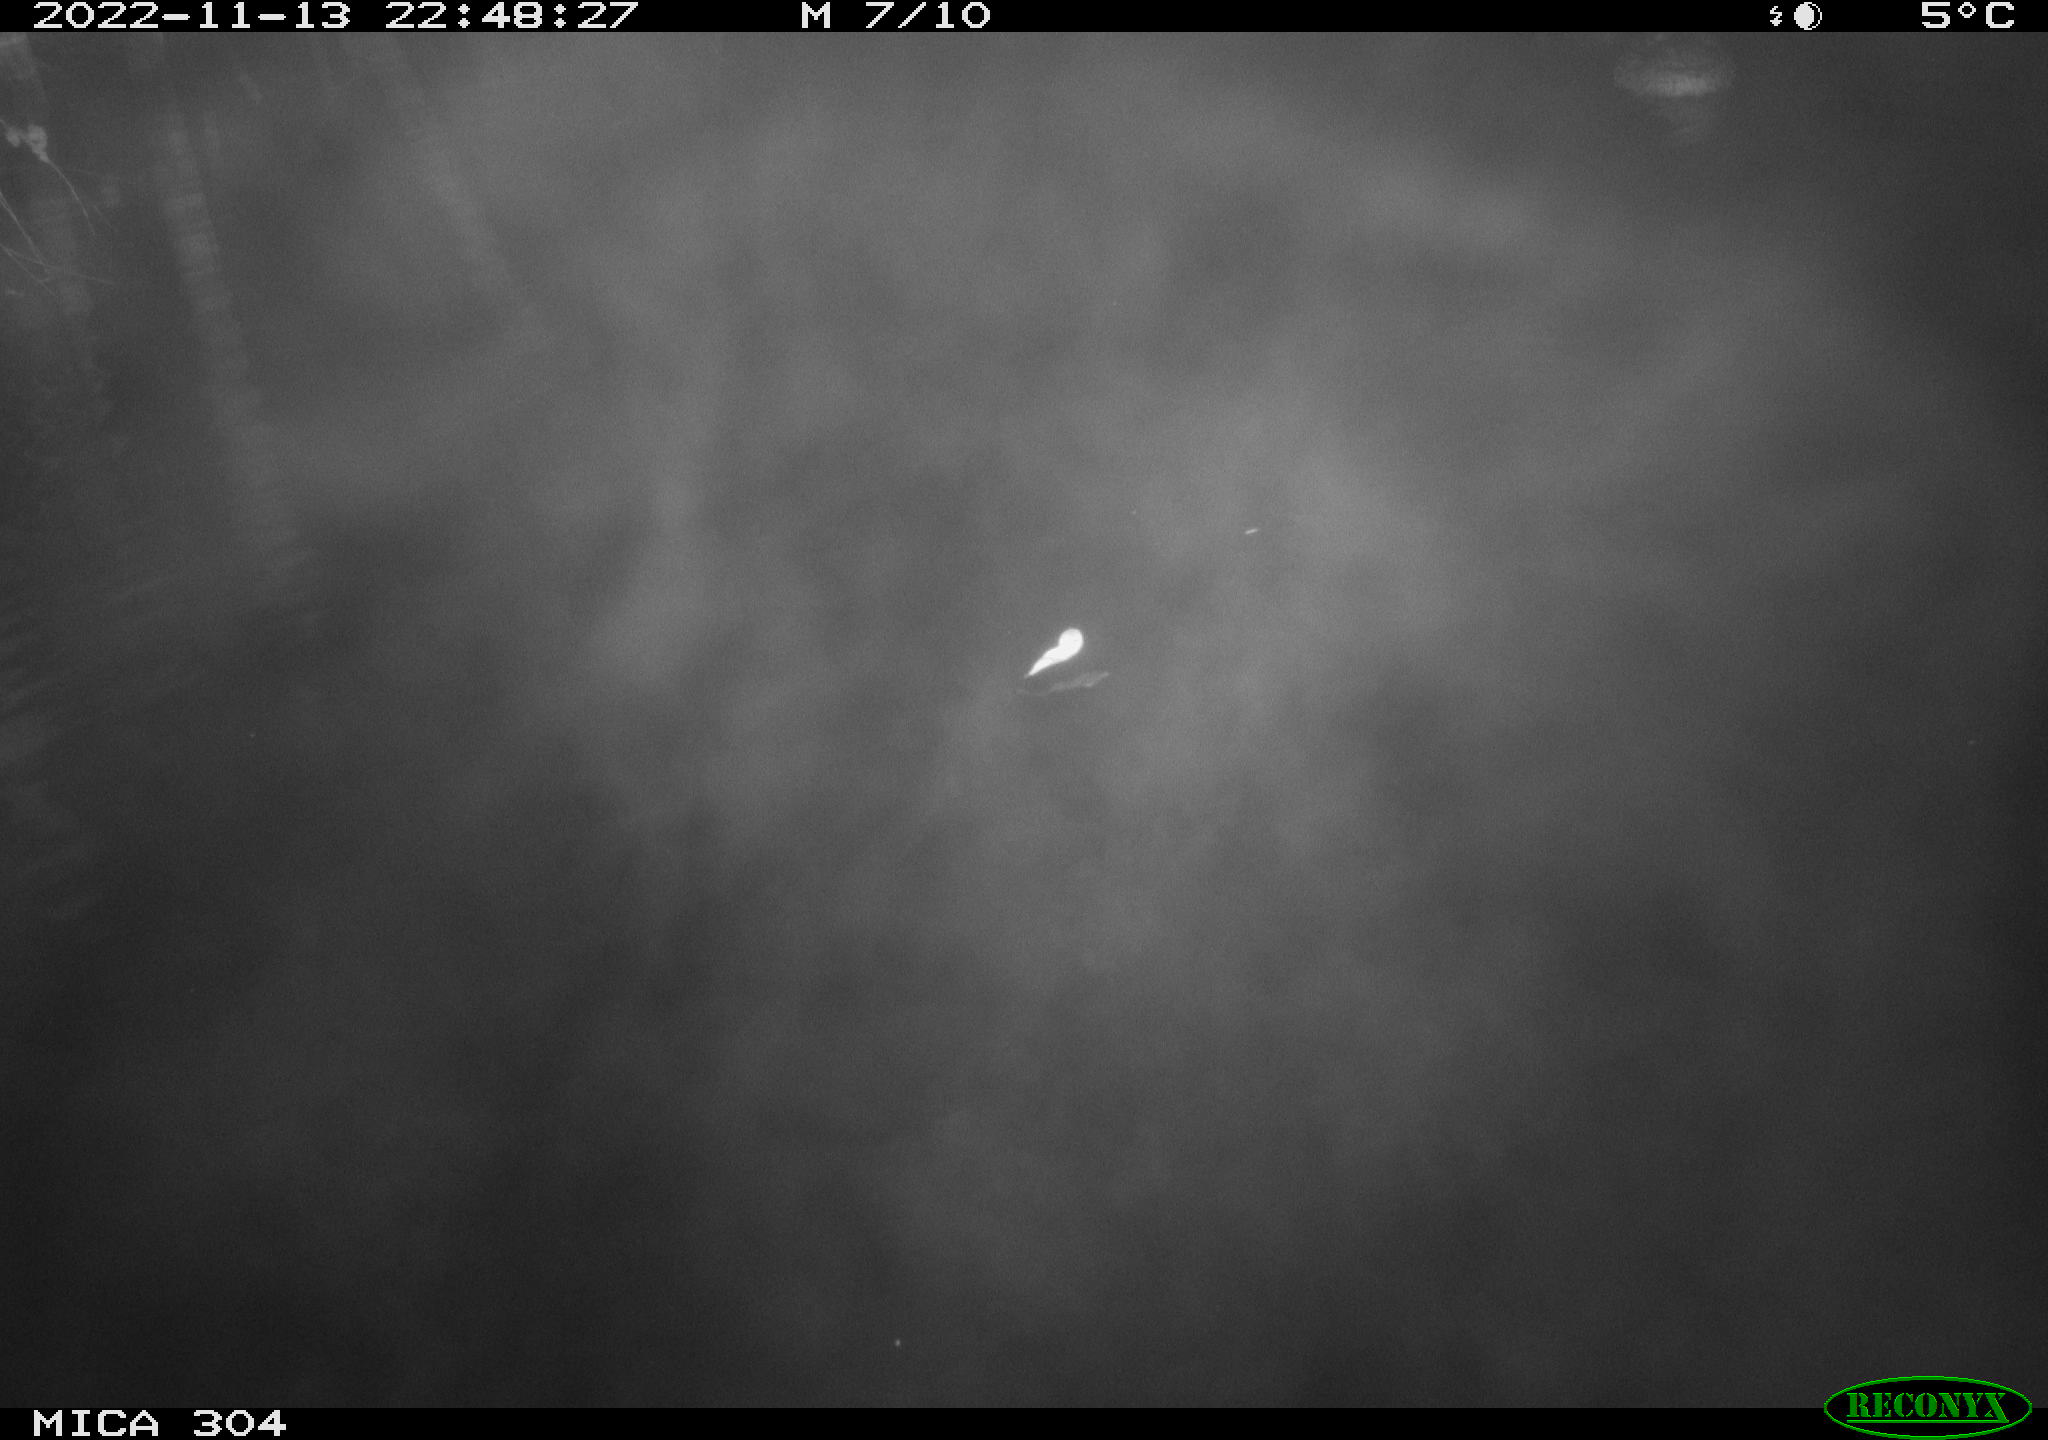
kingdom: Animalia
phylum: Chordata
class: Aves
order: Anseriformes
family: Anatidae
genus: Anas
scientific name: Anas
